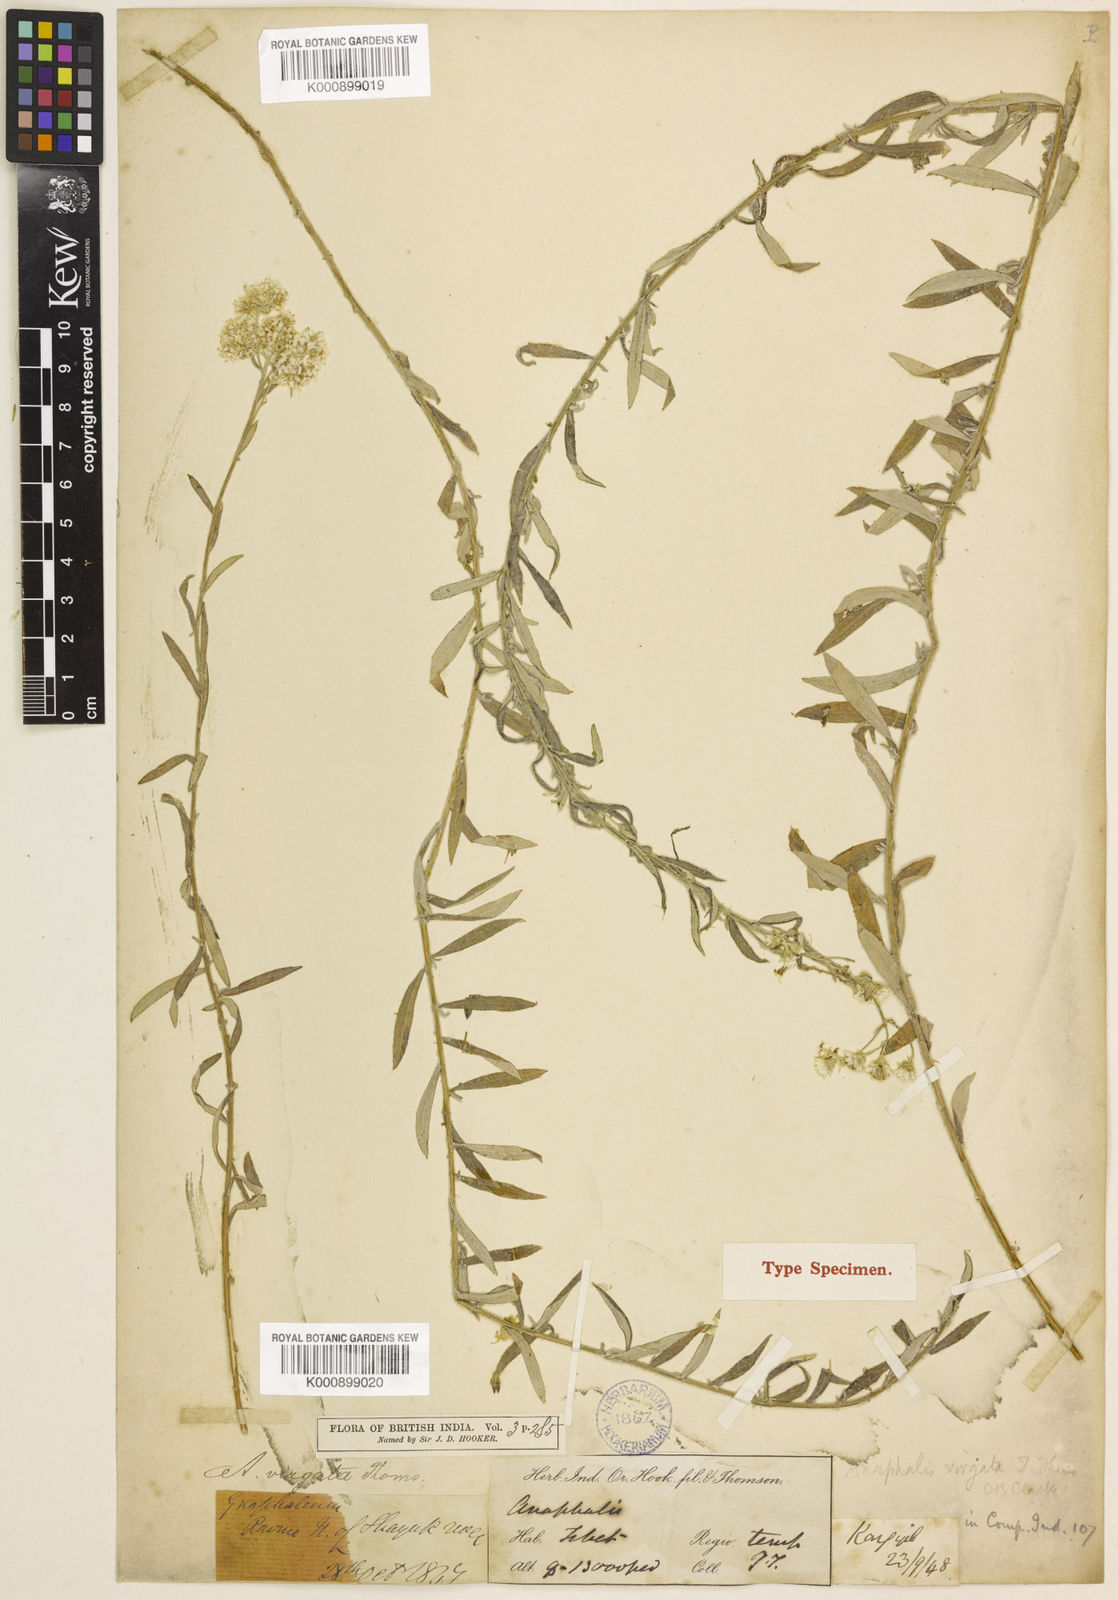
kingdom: Plantae
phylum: Tracheophyta
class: Magnoliopsida
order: Asterales
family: Asteraceae
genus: Anaphalis
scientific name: Anaphalis virgata
